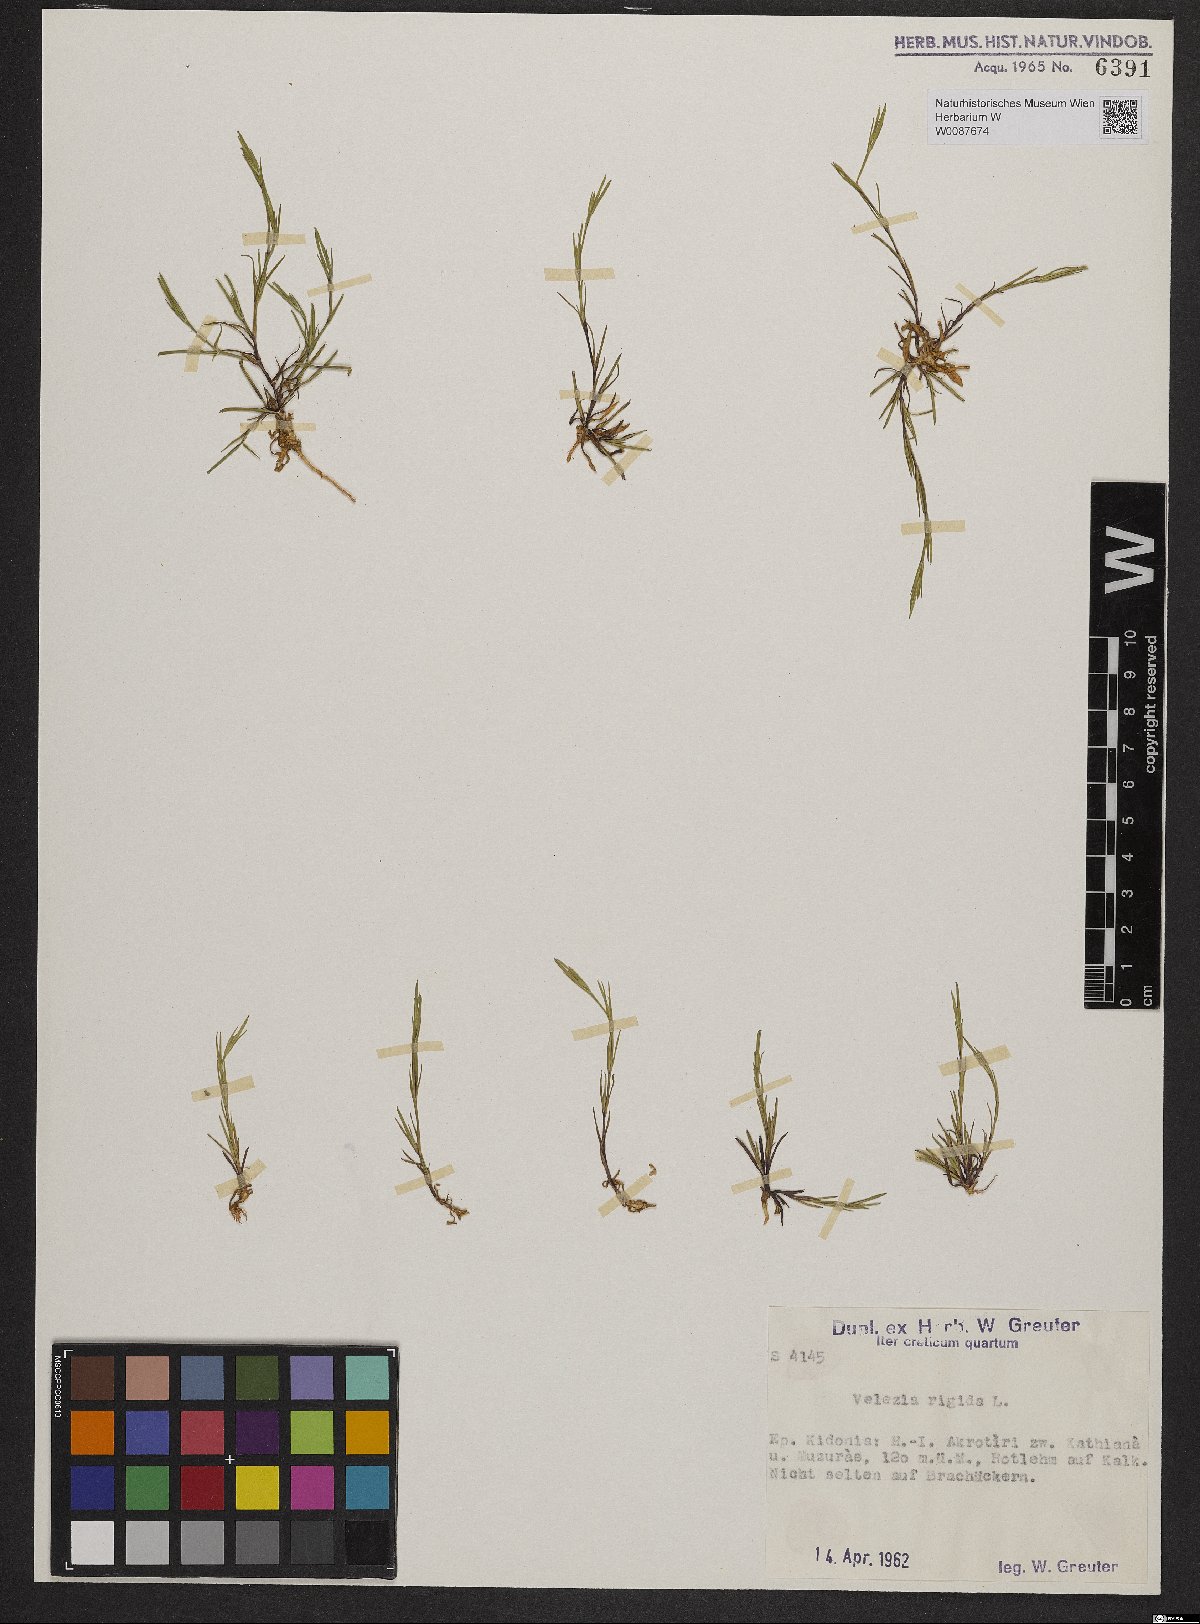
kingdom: Plantae
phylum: Tracheophyta
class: Magnoliopsida
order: Caryophyllales
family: Caryophyllaceae
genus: Dianthus
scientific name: Dianthus nudiflorus
